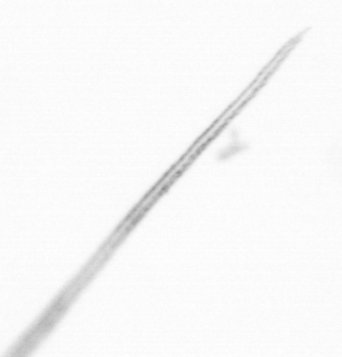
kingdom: Chromista
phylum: Ochrophyta
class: Bacillariophyceae
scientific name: Bacillariophyceae
